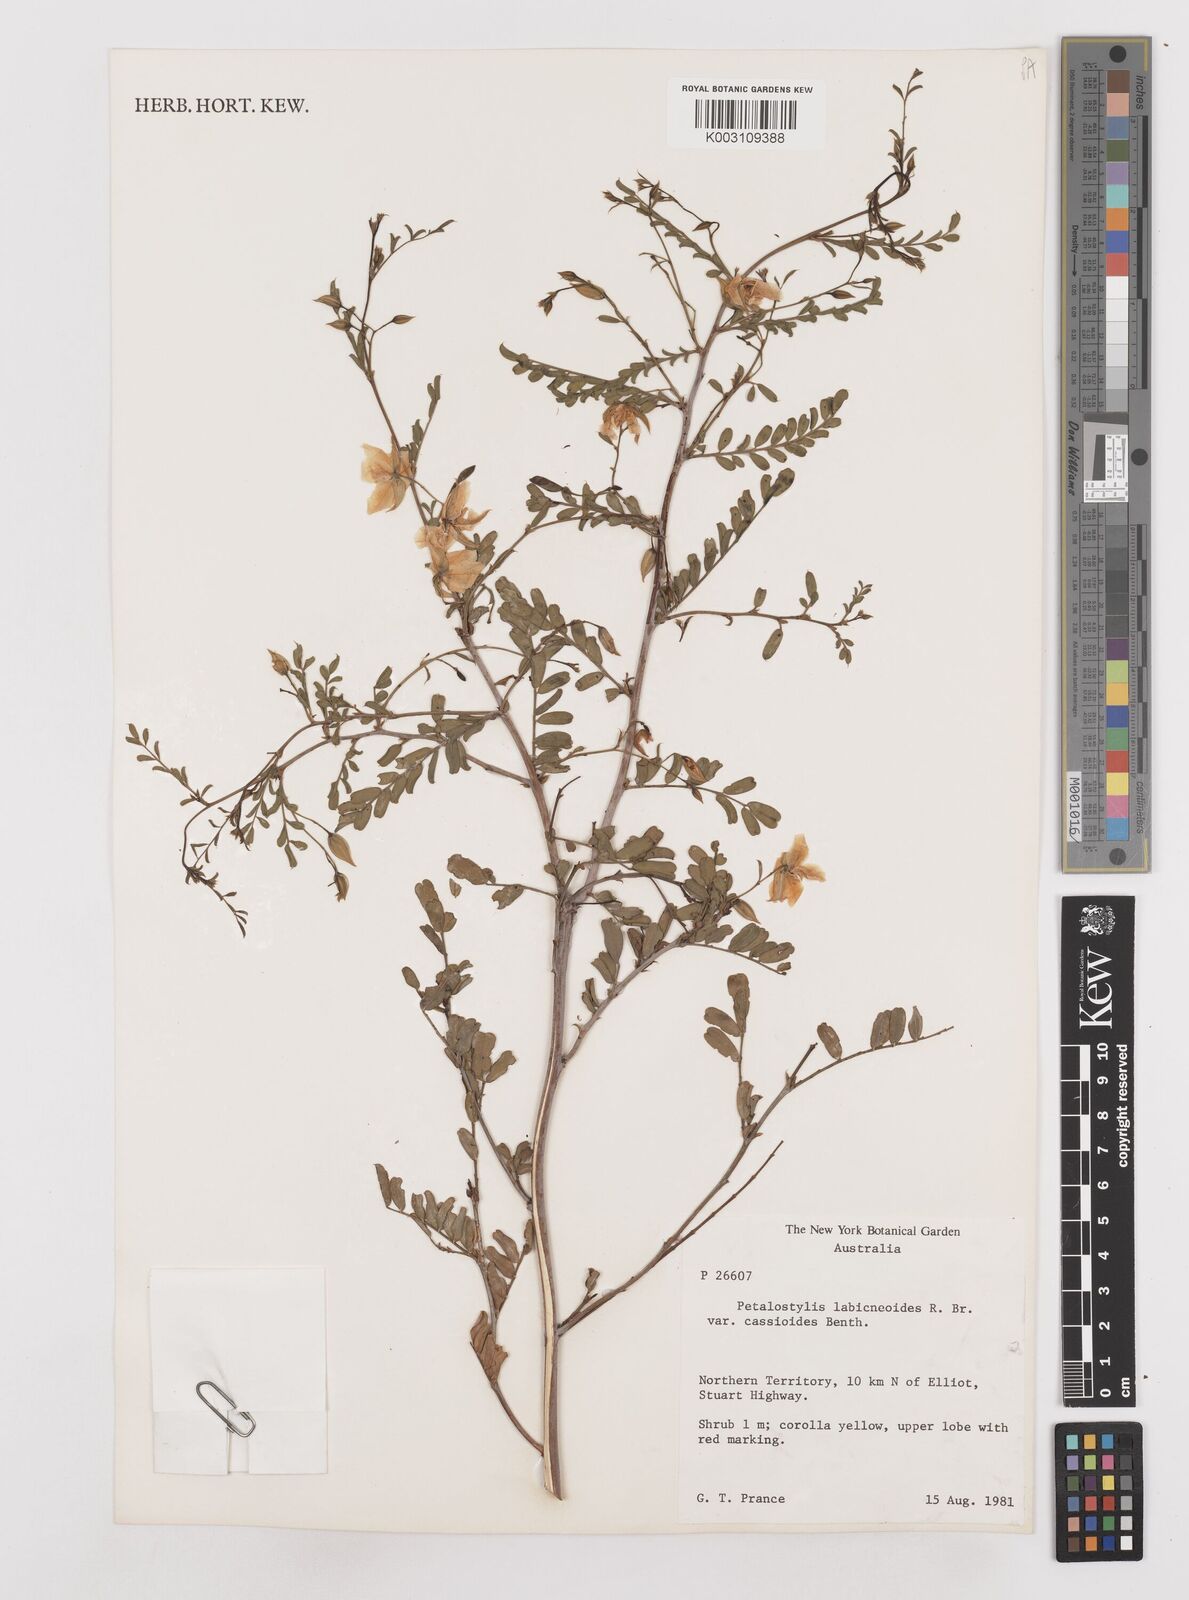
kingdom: Plantae
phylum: Tracheophyta
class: Magnoliopsida
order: Fabales
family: Fabaceae
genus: Petalostylis
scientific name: Petalostylis labicheoides
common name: Butterfly bush
